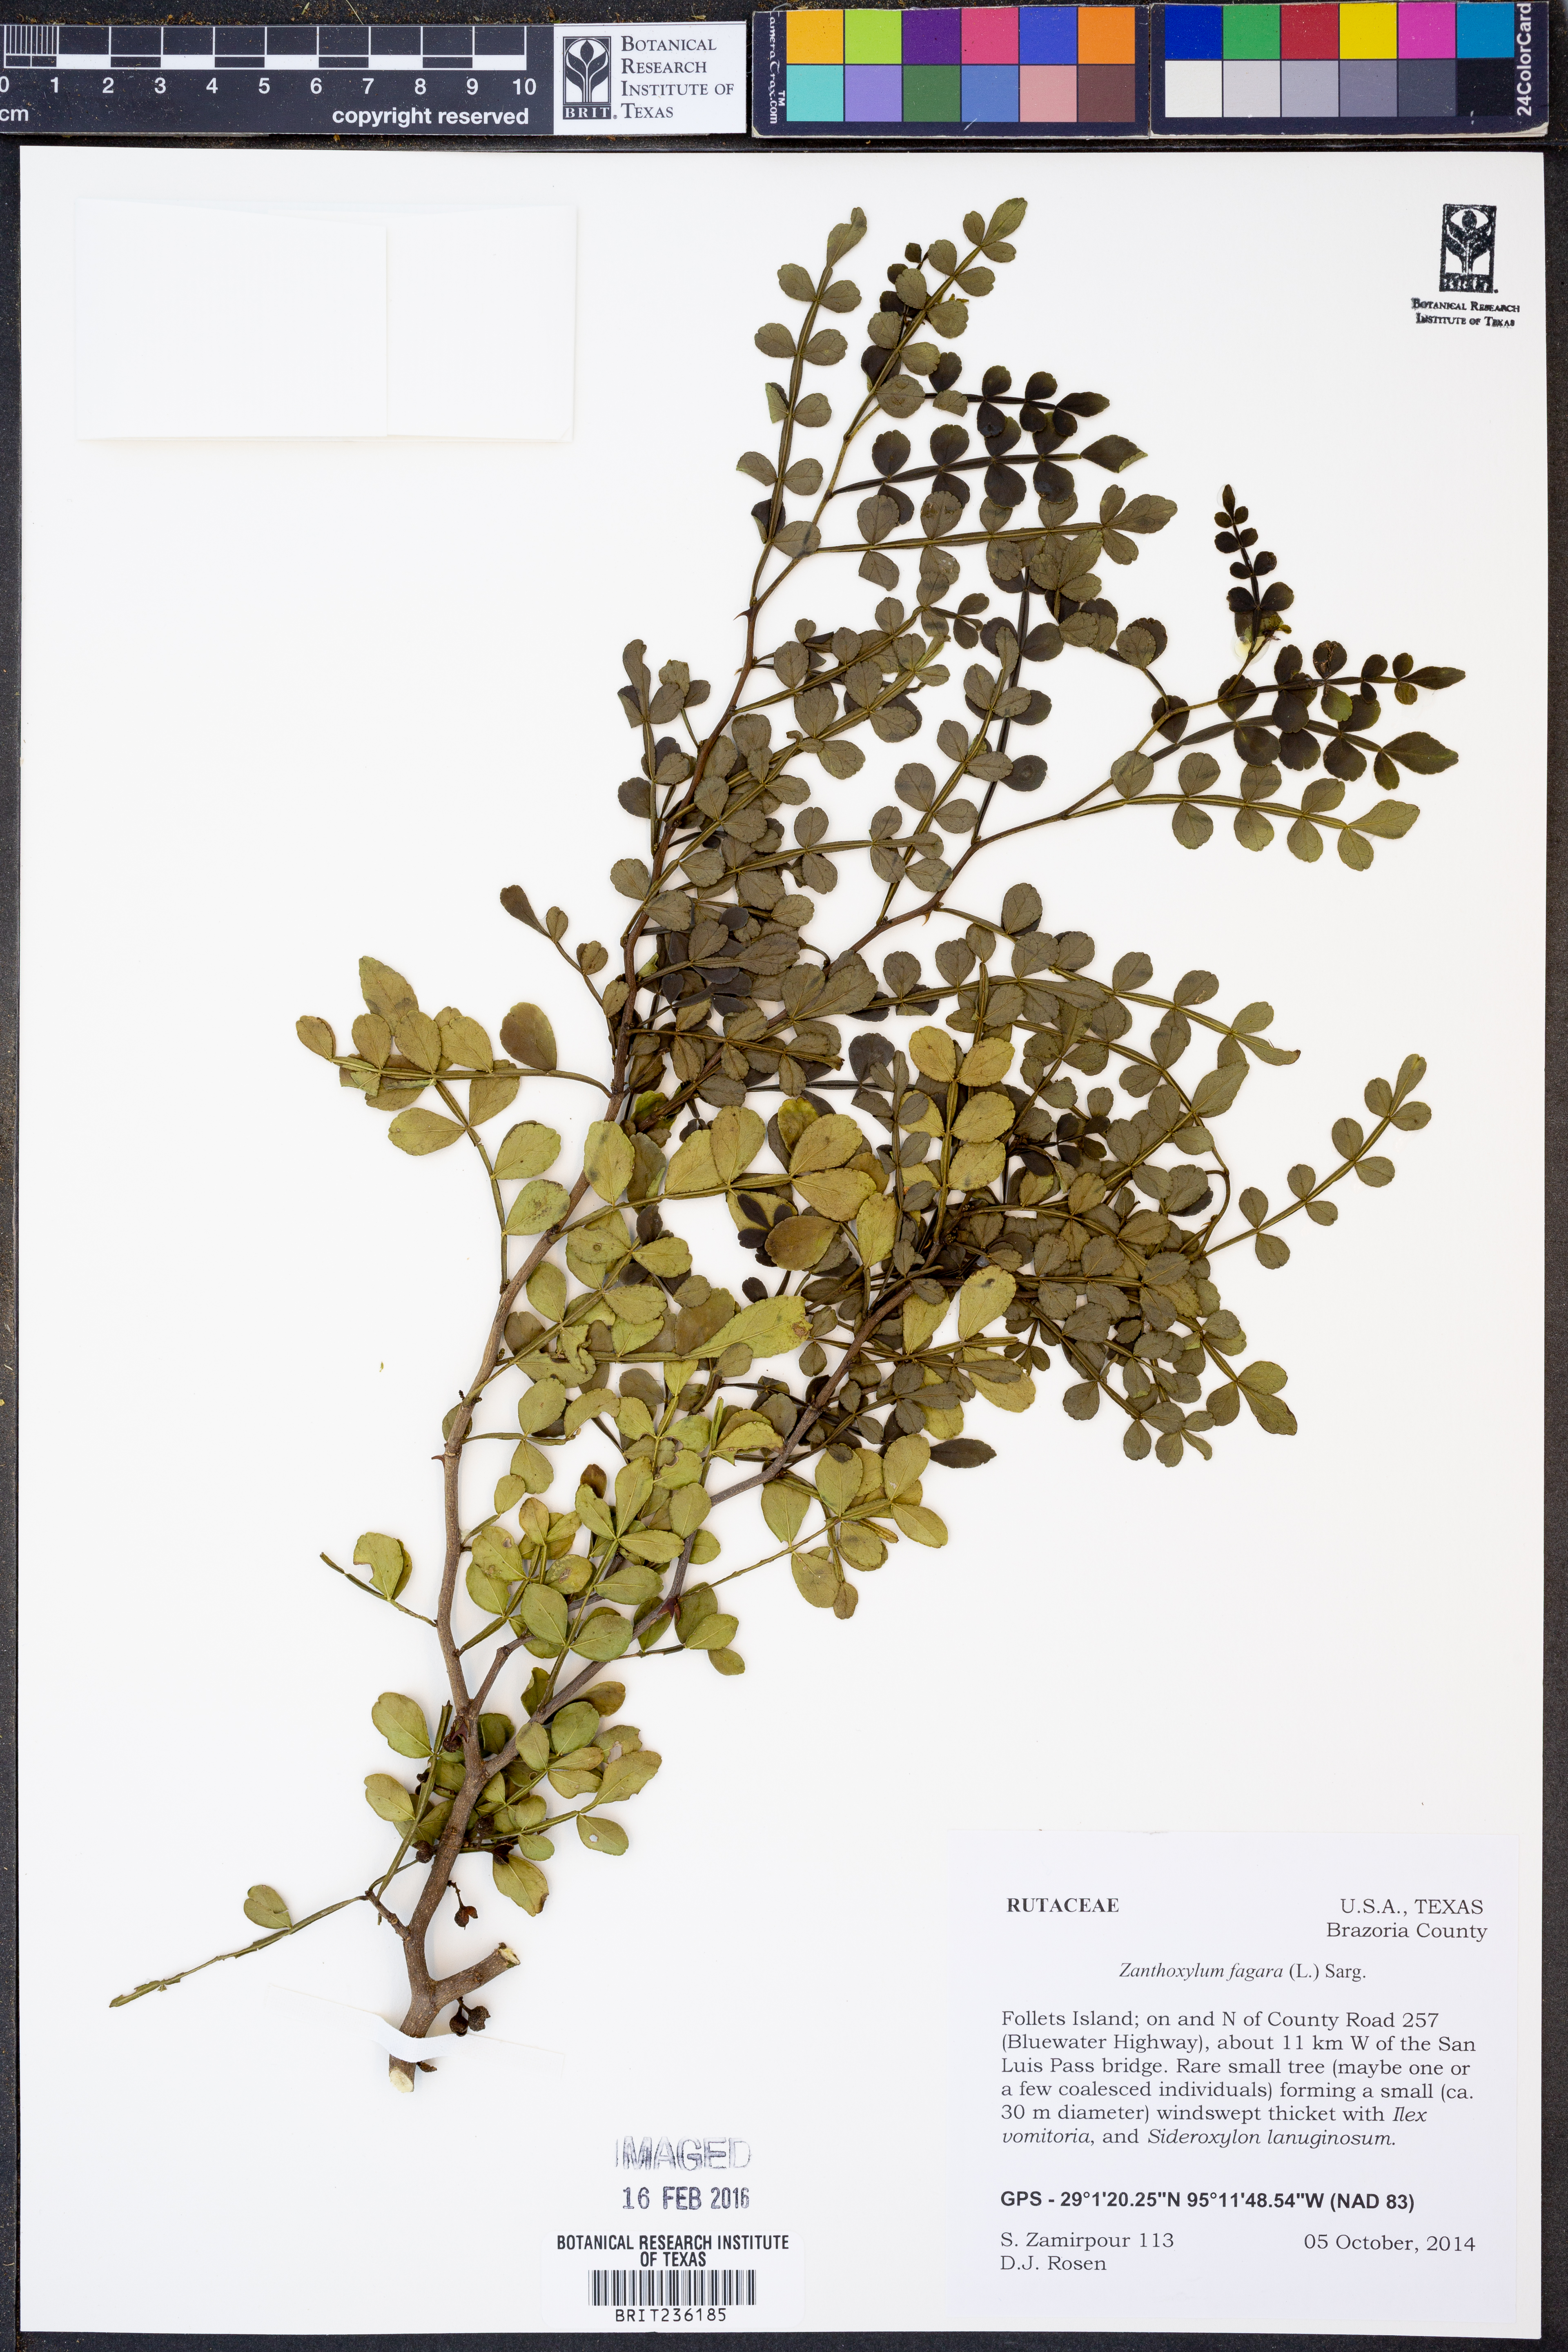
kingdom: Plantae
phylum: Tracheophyta
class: Magnoliopsida
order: Sapindales
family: Rutaceae
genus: Zanthoxylum
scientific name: Zanthoxylum fagara
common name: Lime prickly-ash
